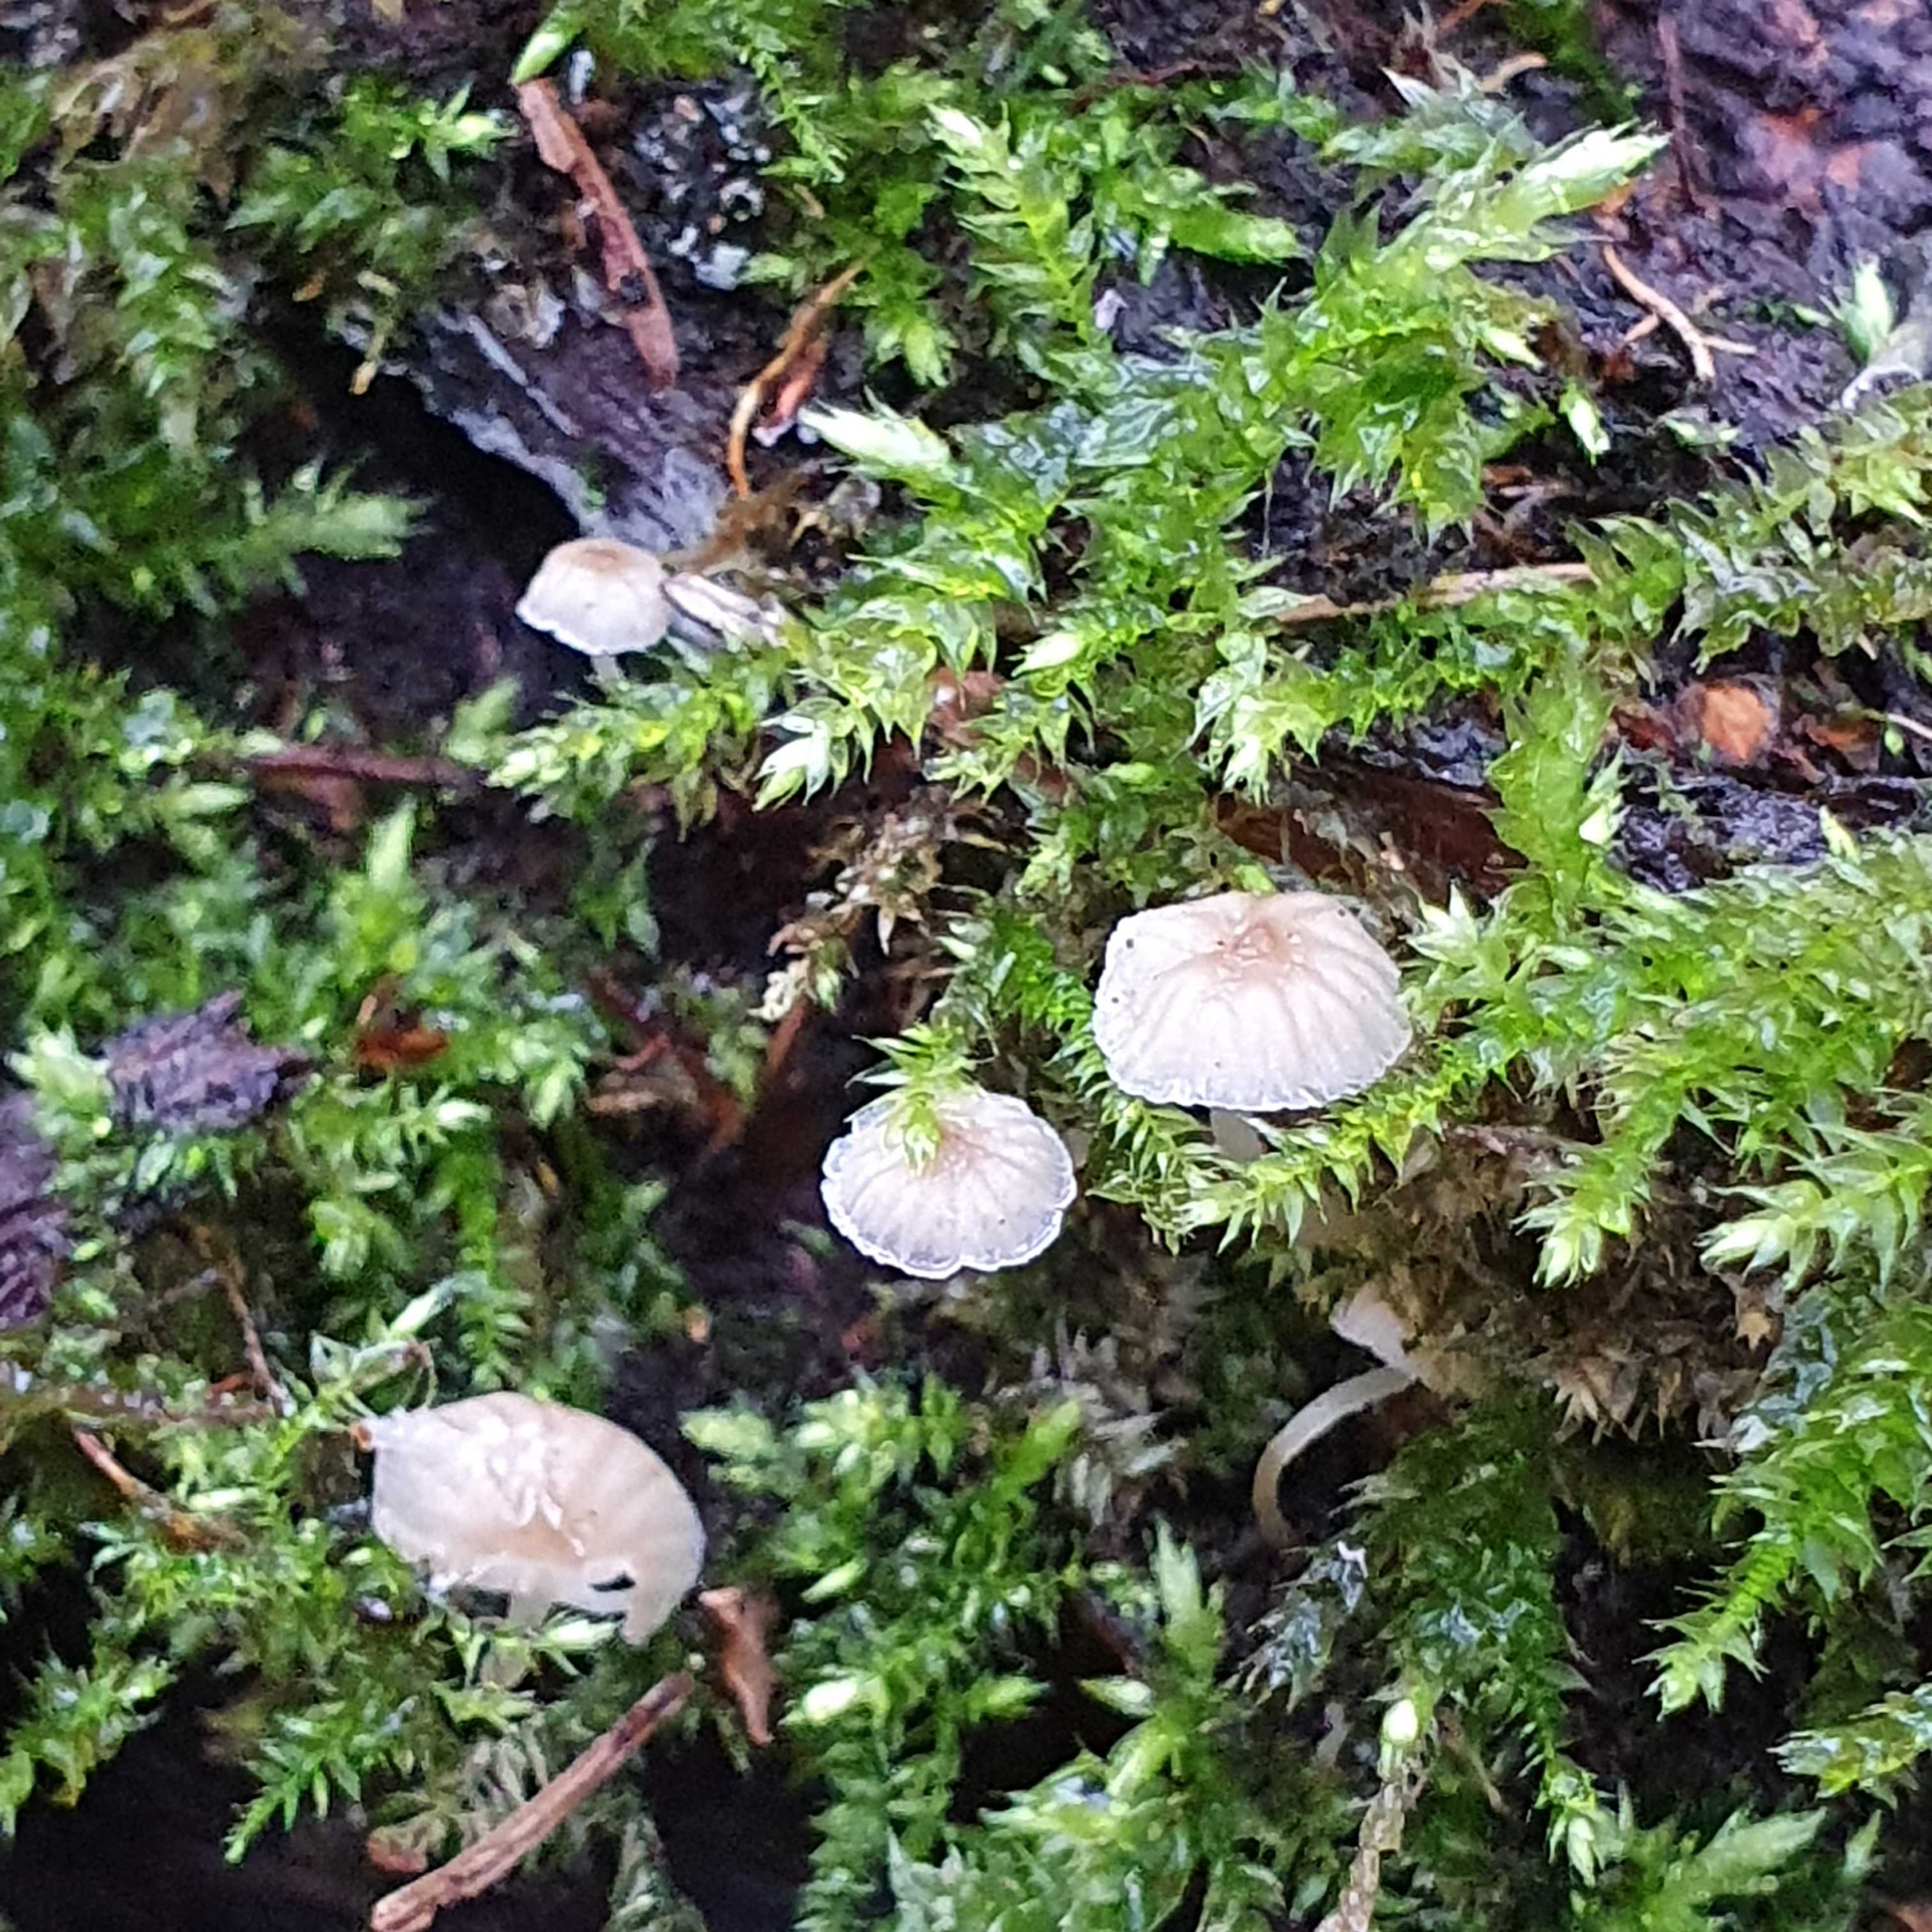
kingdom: Fungi
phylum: Basidiomycota
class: Agaricomycetes
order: Agaricales
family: Porotheleaceae
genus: Phloeomana
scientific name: Phloeomana speirea
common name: kvist-huesvamp
